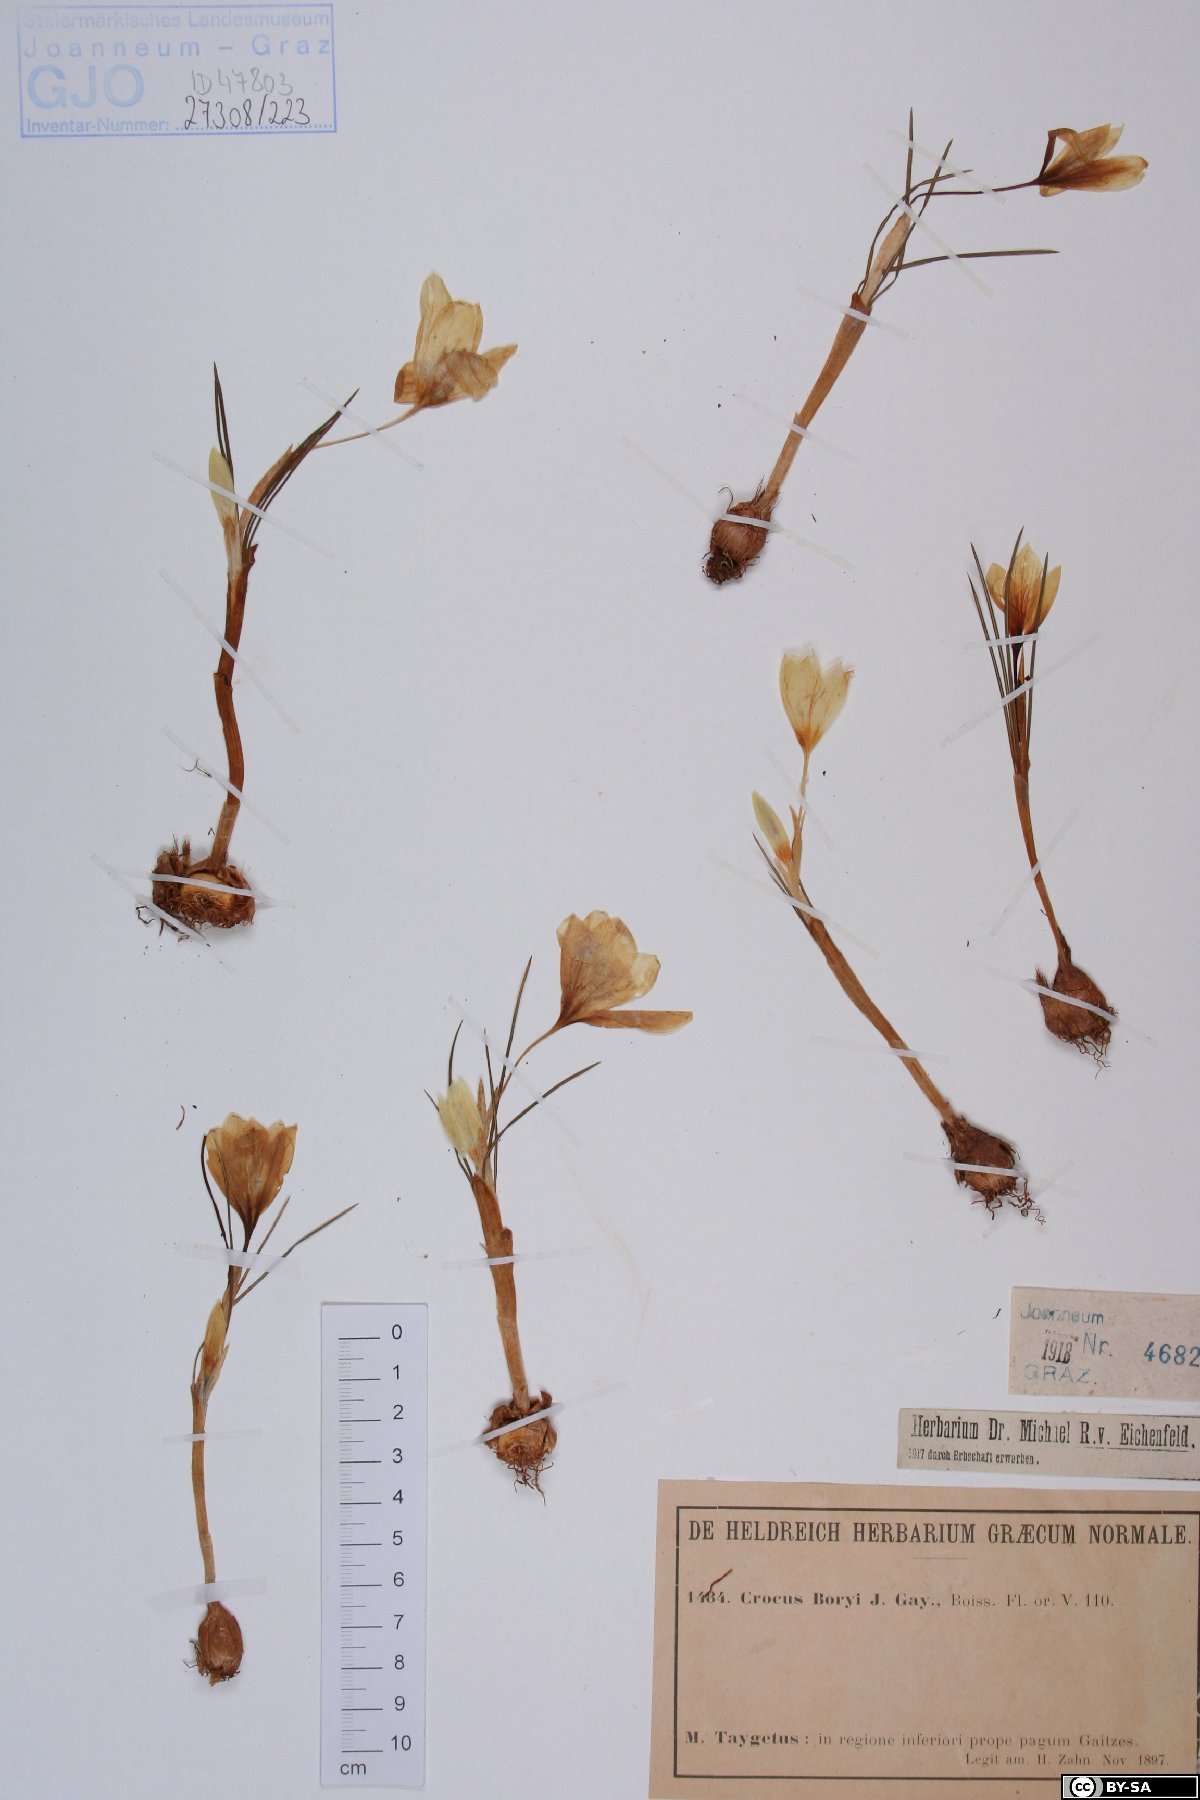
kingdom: Plantae
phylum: Tracheophyta
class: Liliopsida
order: Asparagales
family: Iridaceae
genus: Crocus
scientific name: Crocus boryi
